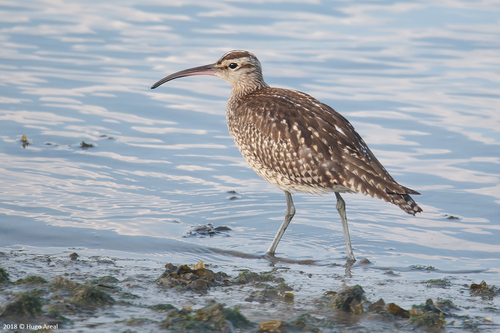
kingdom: Animalia
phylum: Chordata
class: Aves
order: Charadriiformes
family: Scolopacidae
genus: Numenius
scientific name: Numenius phaeopus
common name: Whimbrel
